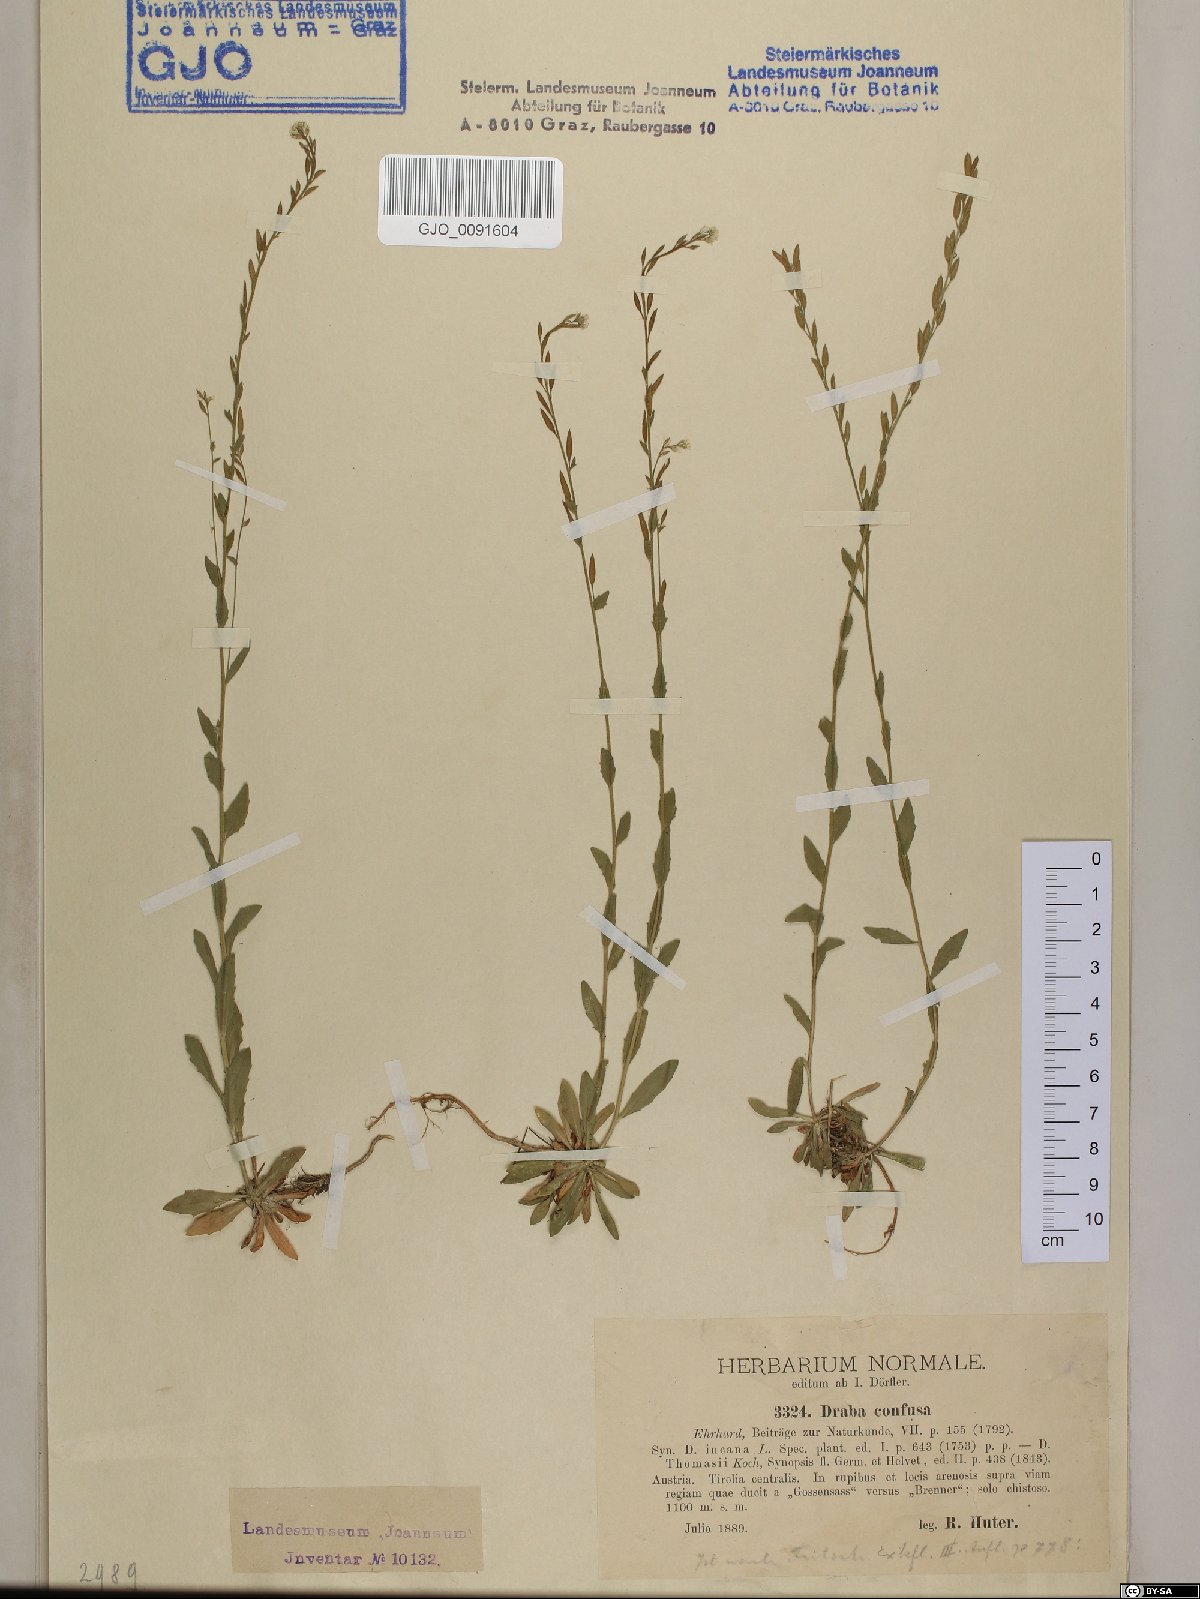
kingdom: Plantae
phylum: Tracheophyta
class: Magnoliopsida
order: Brassicales
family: Brassicaceae
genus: Draba
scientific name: Draba incana
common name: Hoary whitlow-grass
